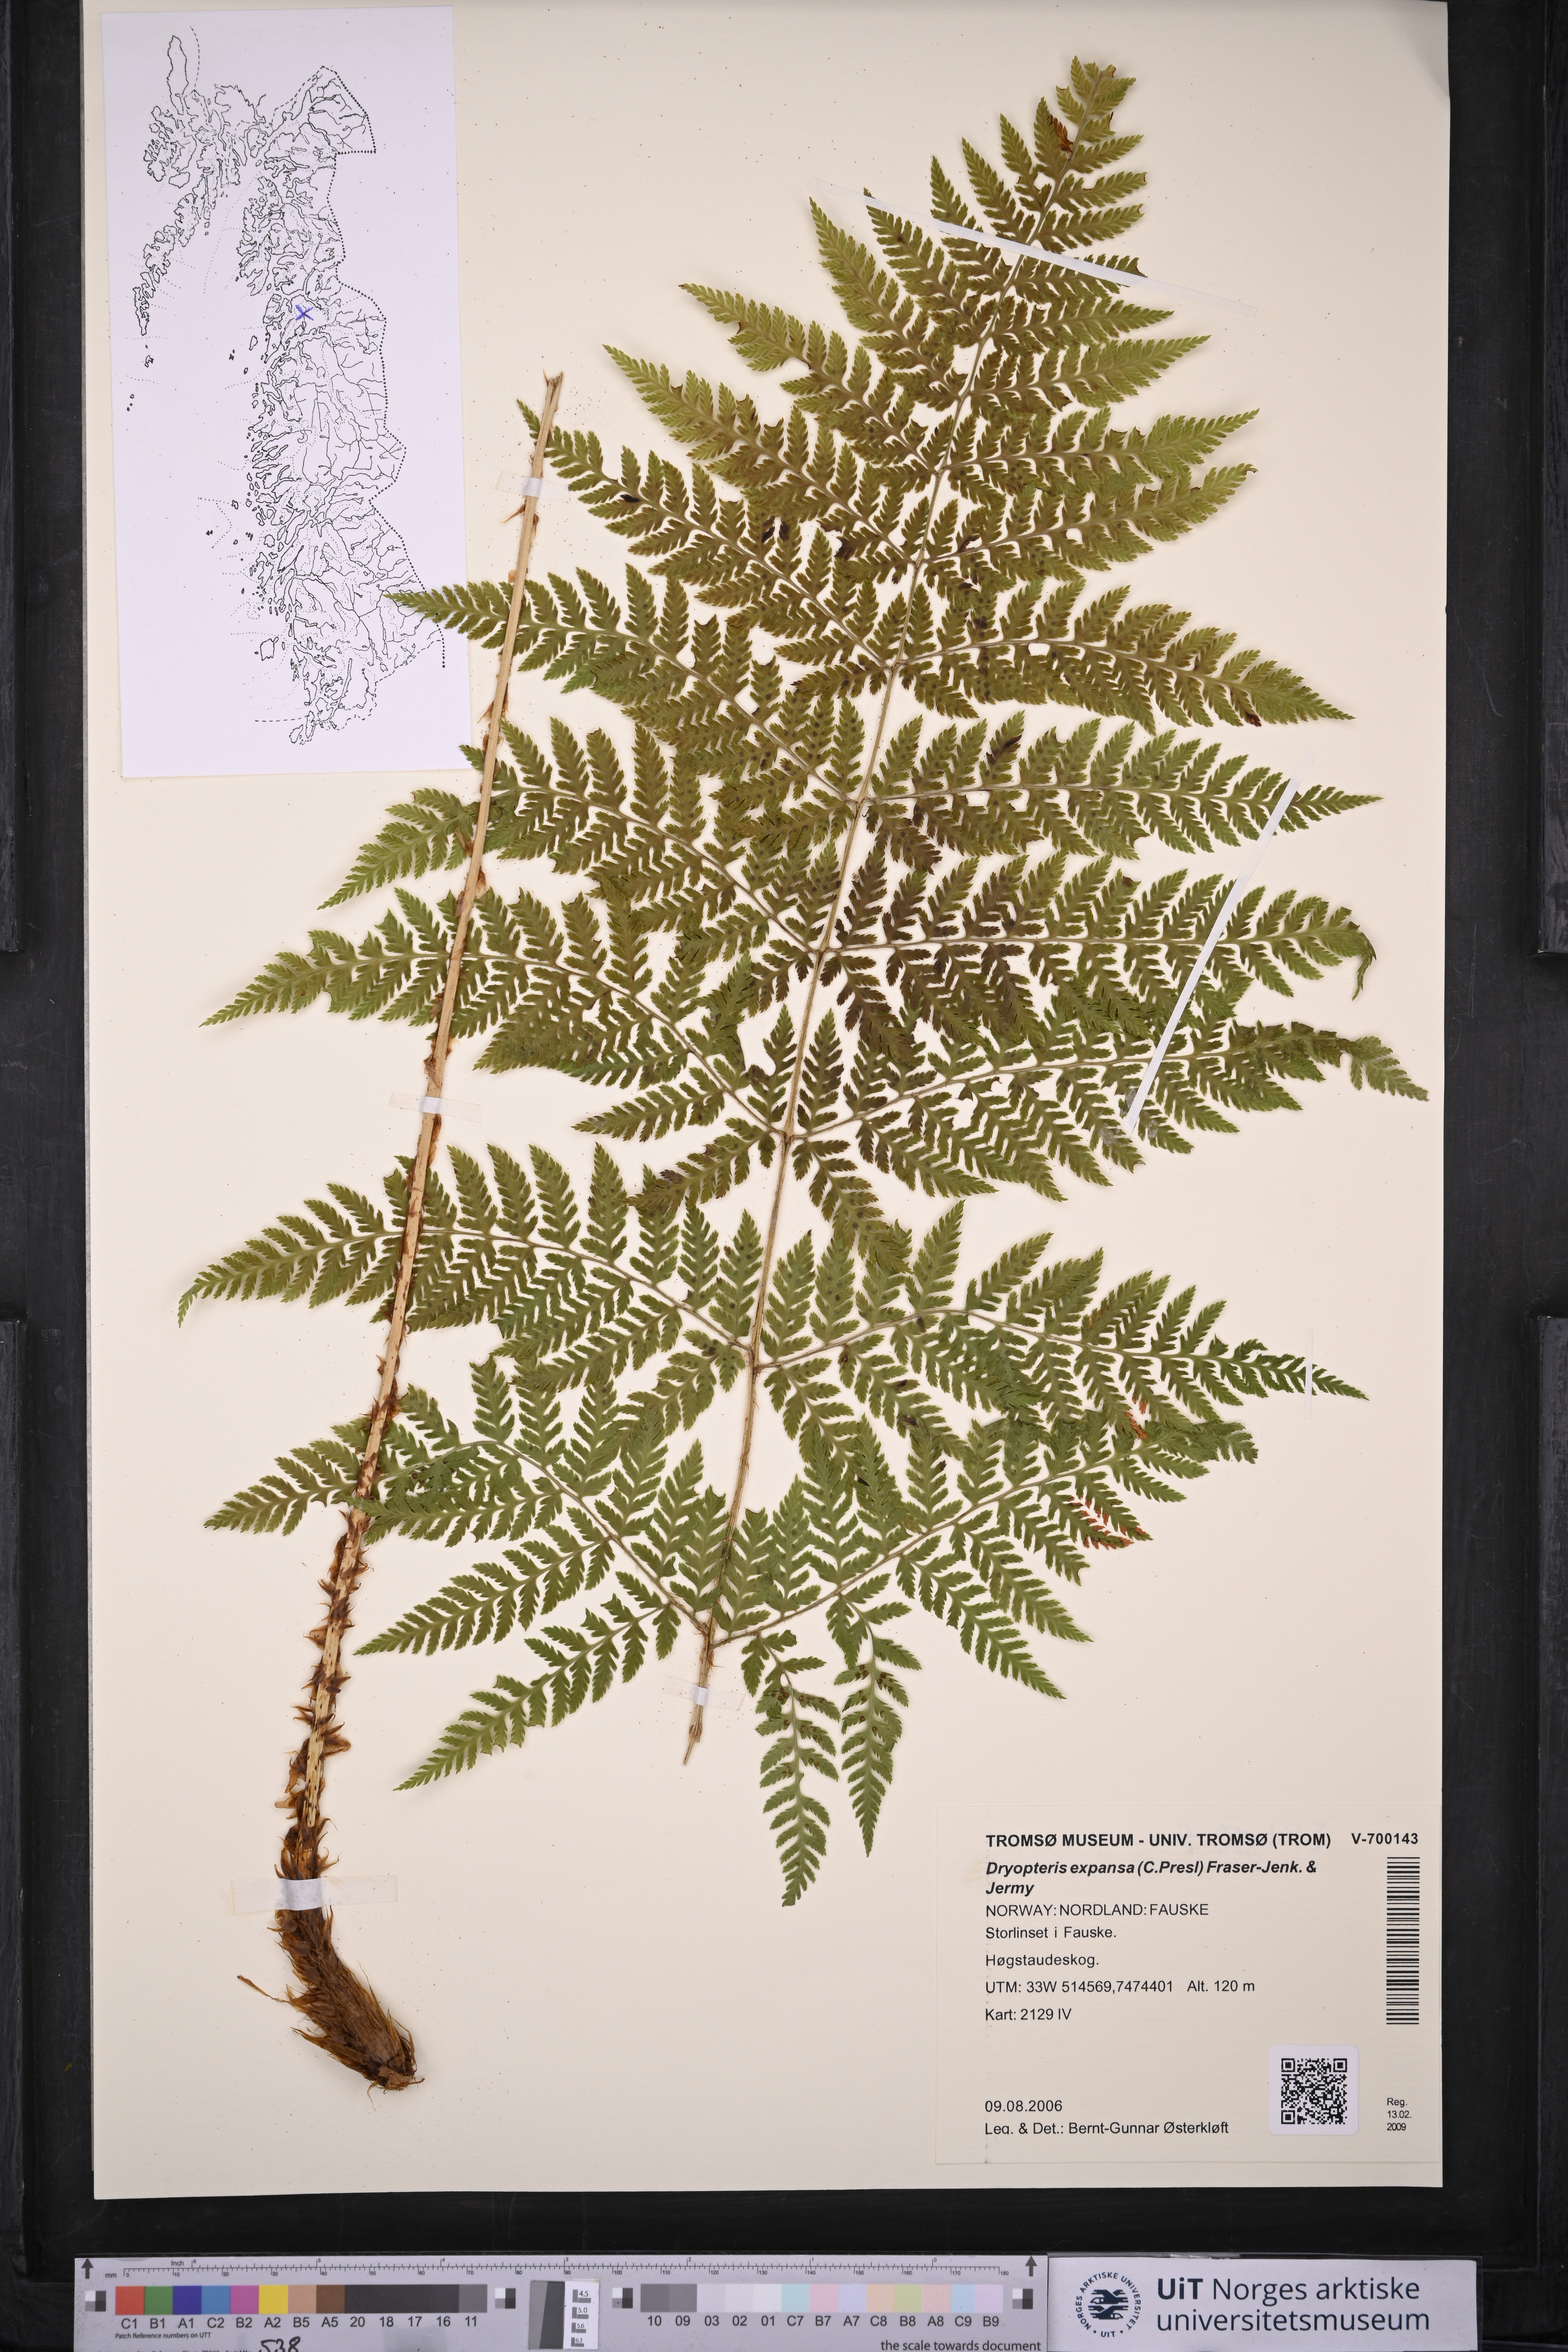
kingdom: Plantae
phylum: Tracheophyta
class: Polypodiopsida
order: Polypodiales
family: Dryopteridaceae
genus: Dryopteris
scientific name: Dryopteris expansa
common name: Northern buckler fern
